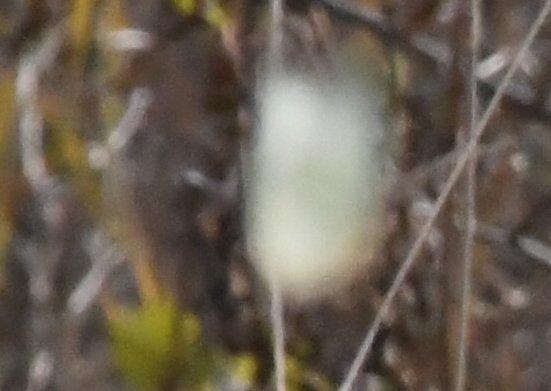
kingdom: Animalia
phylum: Arthropoda
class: Insecta
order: Lepidoptera
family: Pieridae
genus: Colias
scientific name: Colias
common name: Clouded Yellows
